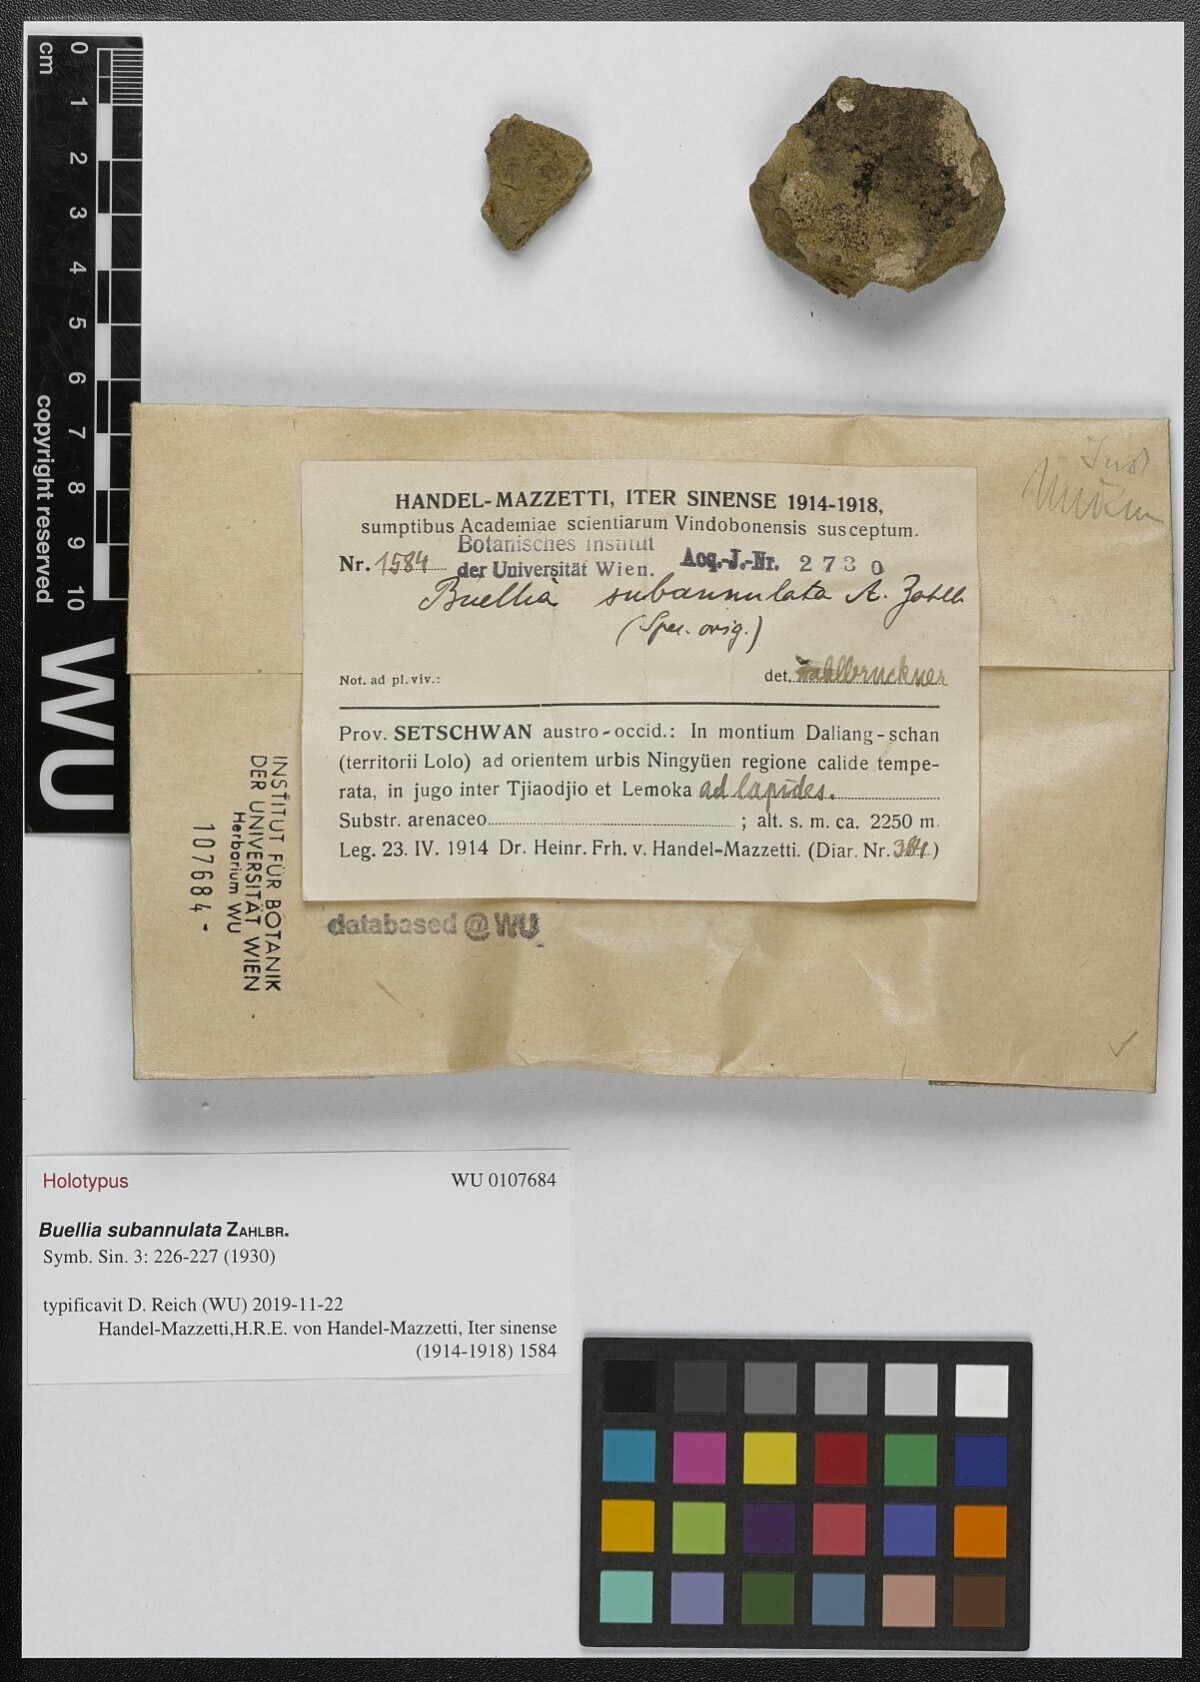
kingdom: Fungi
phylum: Ascomycota
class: Lecanoromycetes
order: Caliciales
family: Physciaceae
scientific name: Physciaceae
